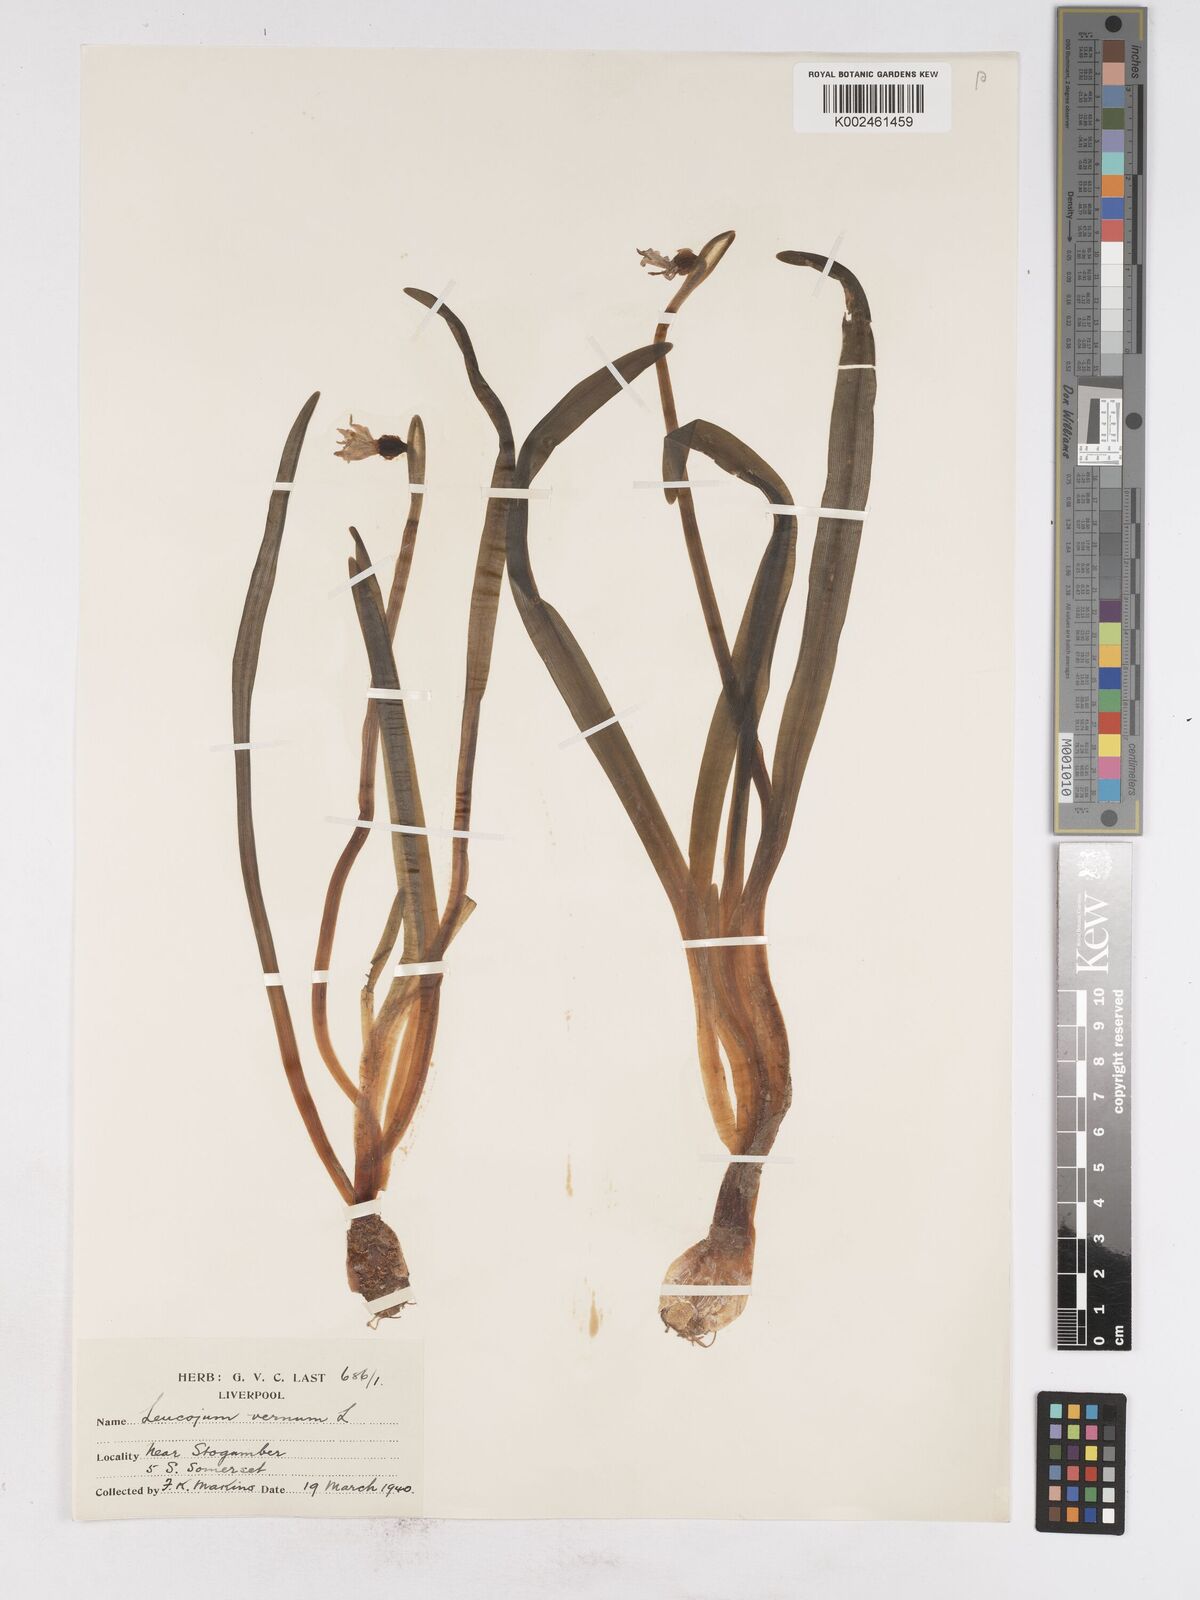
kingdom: Plantae
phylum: Tracheophyta
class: Liliopsida
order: Asparagales
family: Amaryllidaceae
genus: Leucojum
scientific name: Leucojum vernum
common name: Spring snowflake
